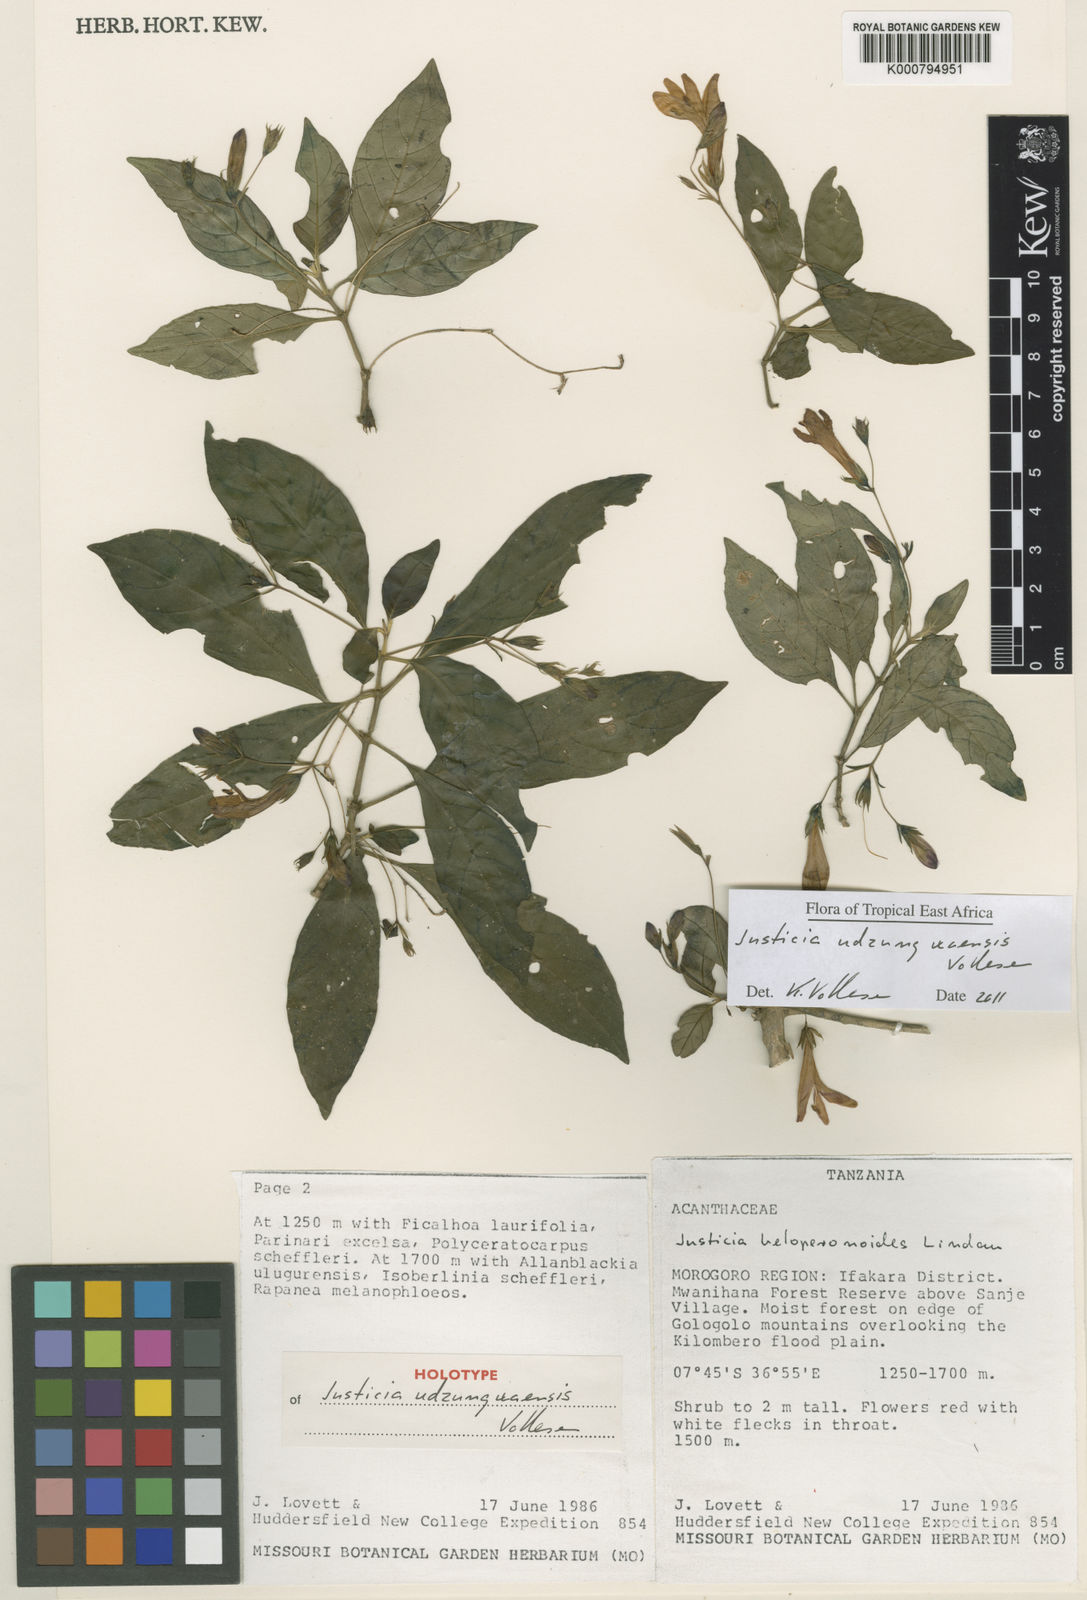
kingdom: Plantae
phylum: Tracheophyta
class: Magnoliopsida
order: Lamiales
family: Acanthaceae
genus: Justicia
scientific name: Justicia udzungwaensis
